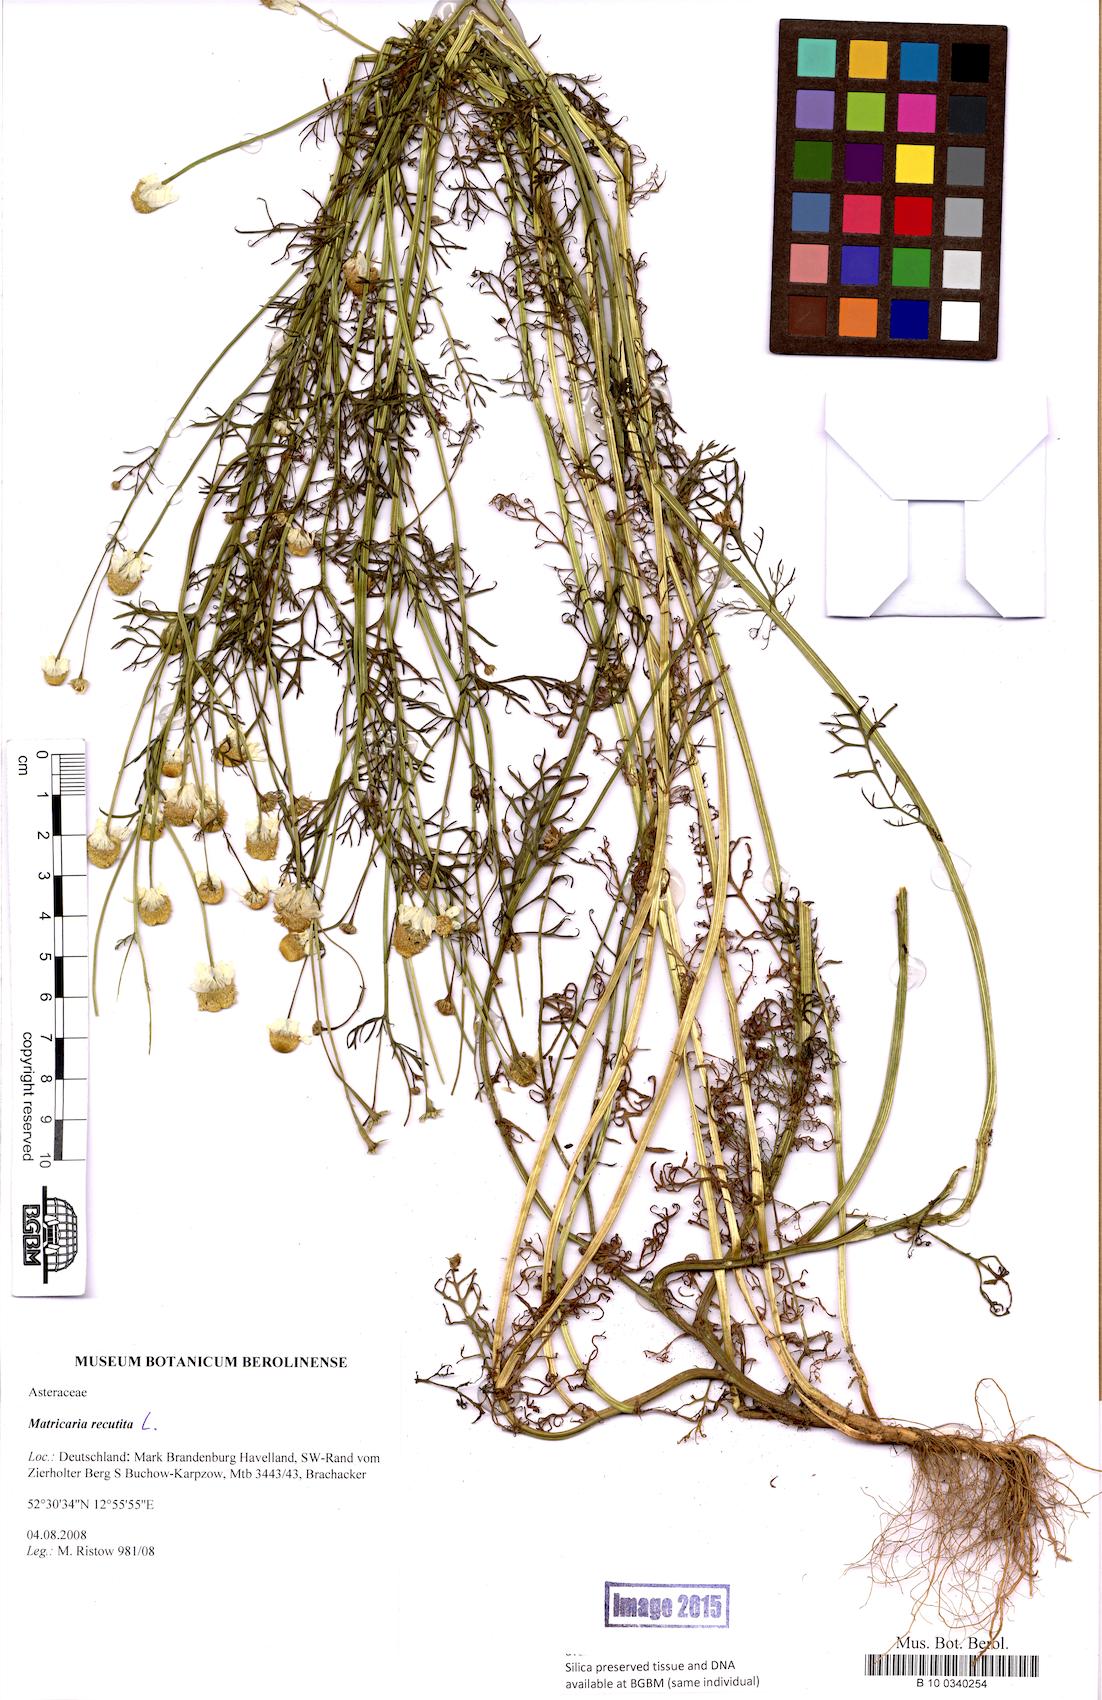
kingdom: Plantae
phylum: Tracheophyta
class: Magnoliopsida
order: Asterales
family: Asteraceae
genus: Matricaria
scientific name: Matricaria chamomilla
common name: Scented mayweed
